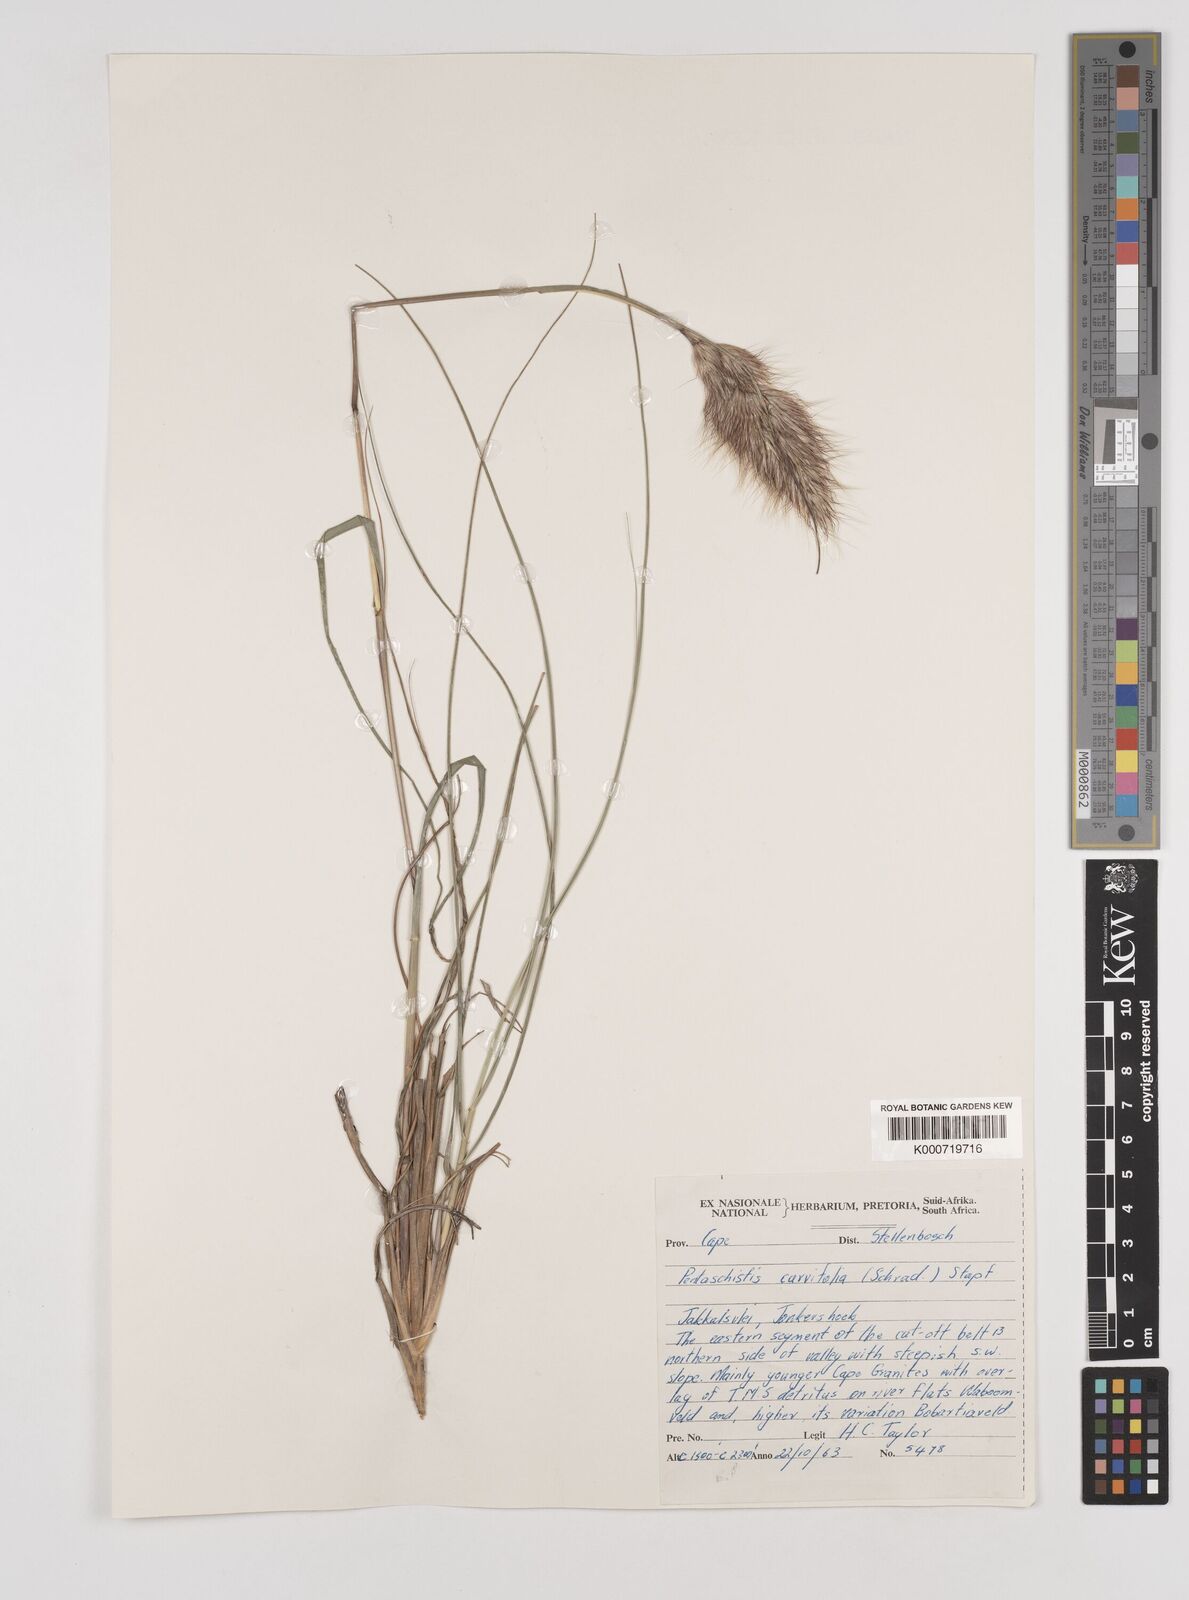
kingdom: Plantae
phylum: Tracheophyta
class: Liliopsida
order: Poales
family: Poaceae
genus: Pentameris
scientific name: Pentameris curvifolia
